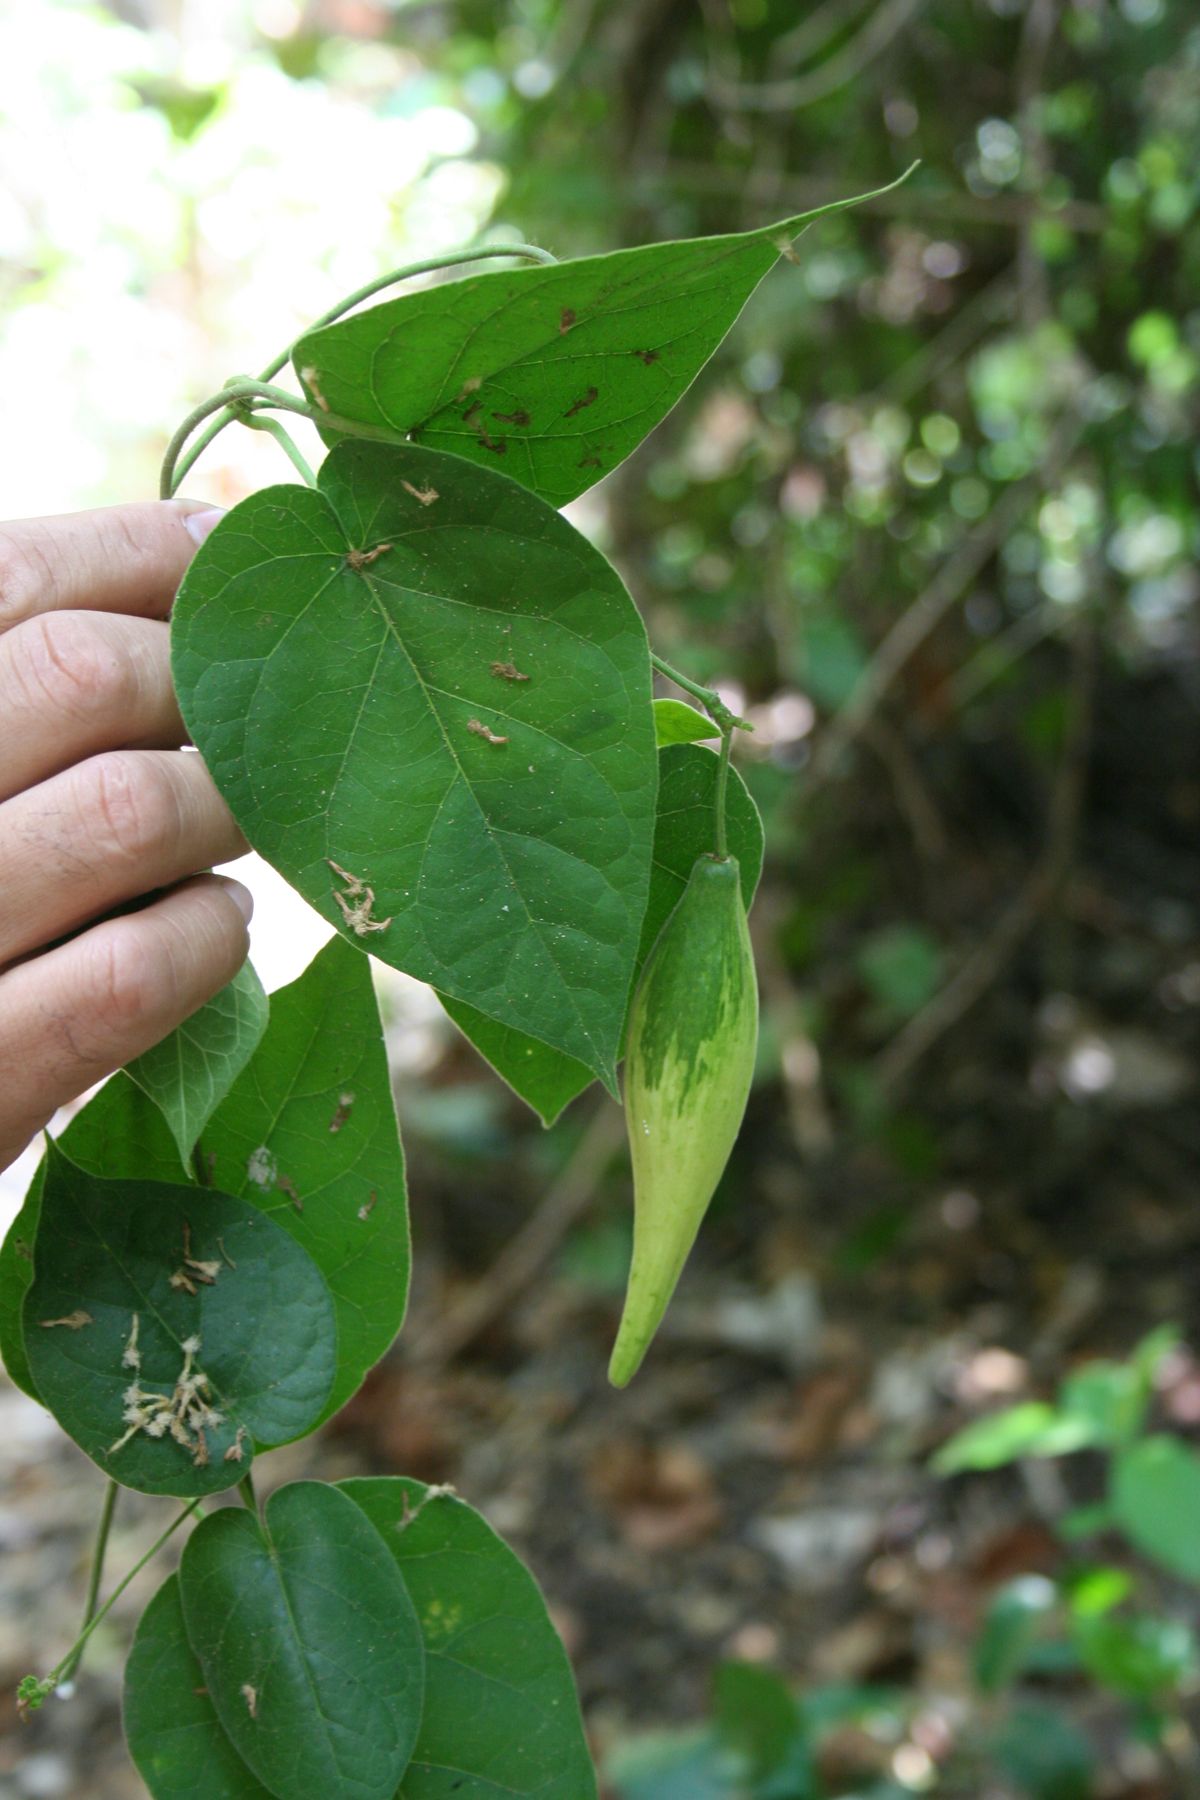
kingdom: Plantae
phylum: Tracheophyta
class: Magnoliopsida
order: Gentianales
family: Apocynaceae
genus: Matelea
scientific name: Matelea filipes
